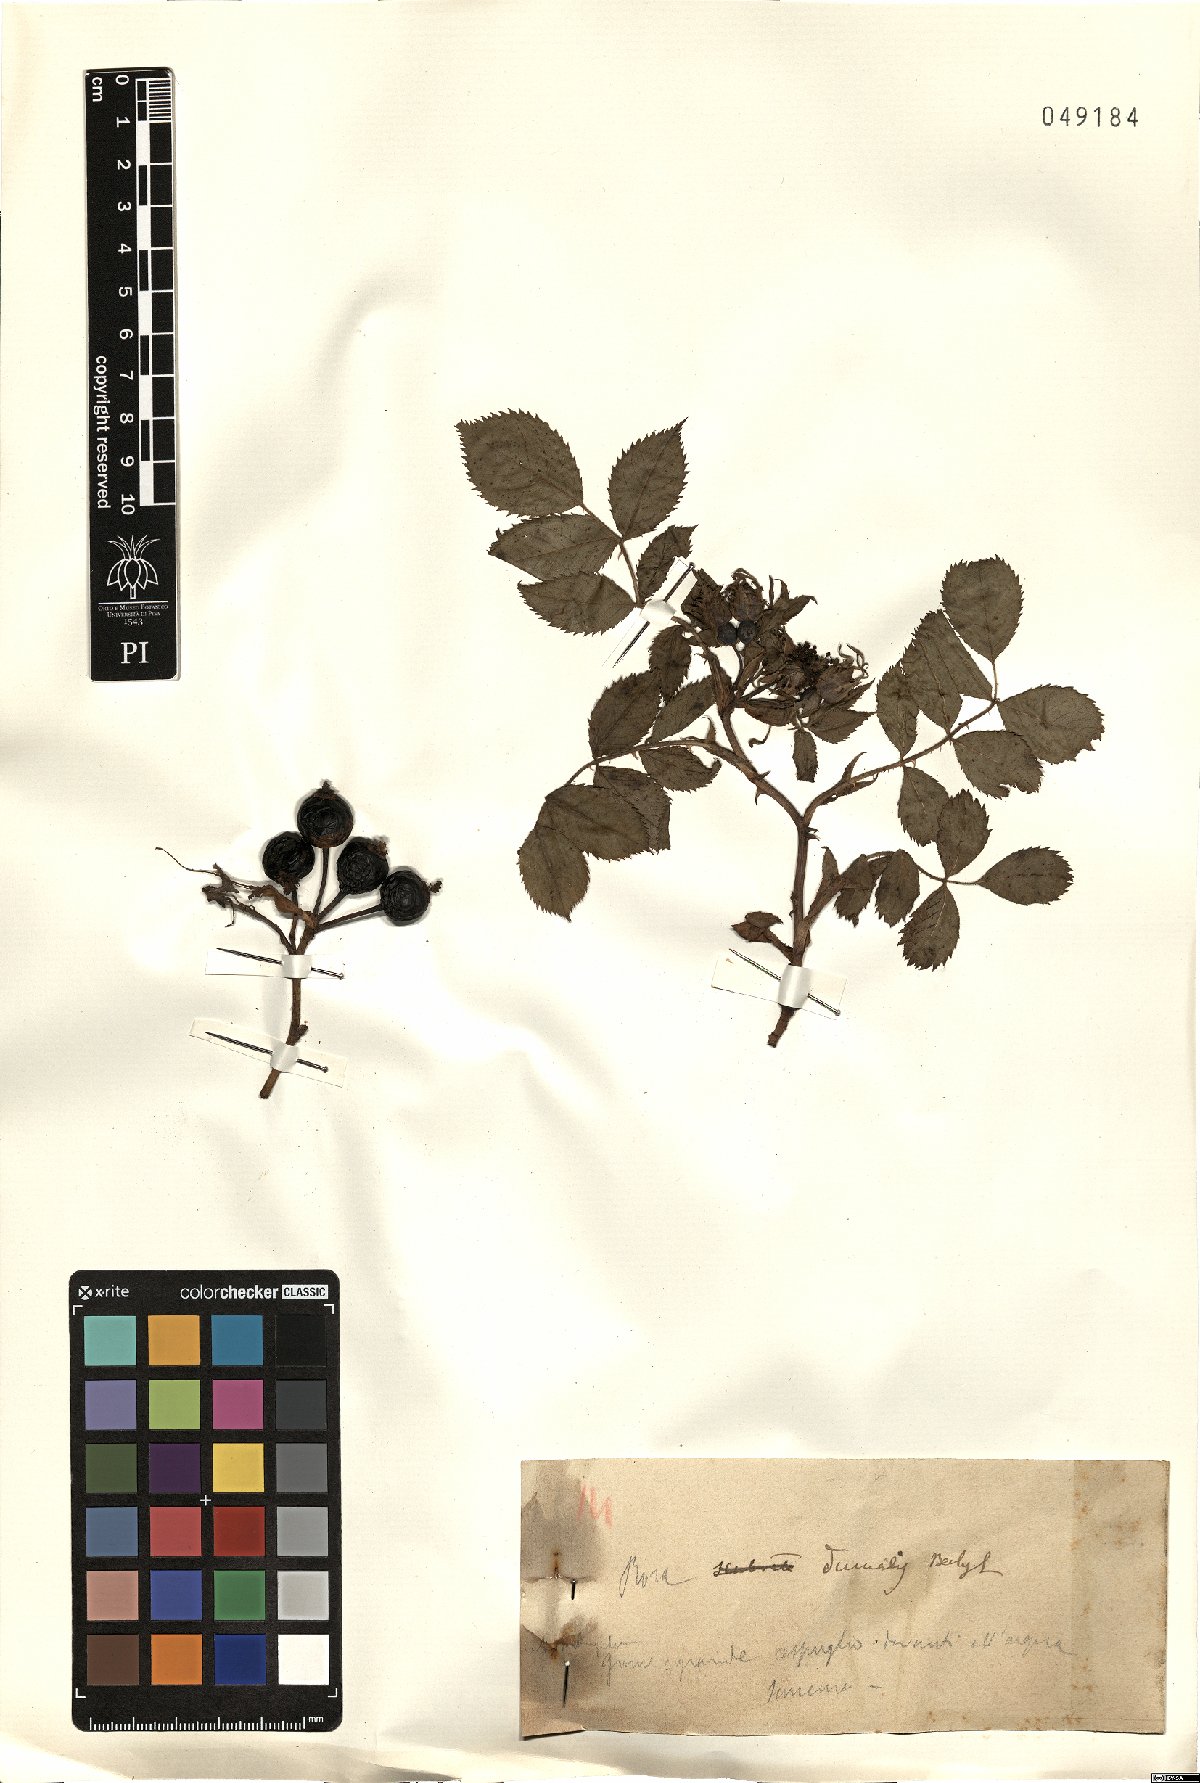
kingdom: Plantae
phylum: Tracheophyta
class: Magnoliopsida
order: Rosales
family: Rosaceae
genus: Rosa
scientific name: Rosa dumalis
